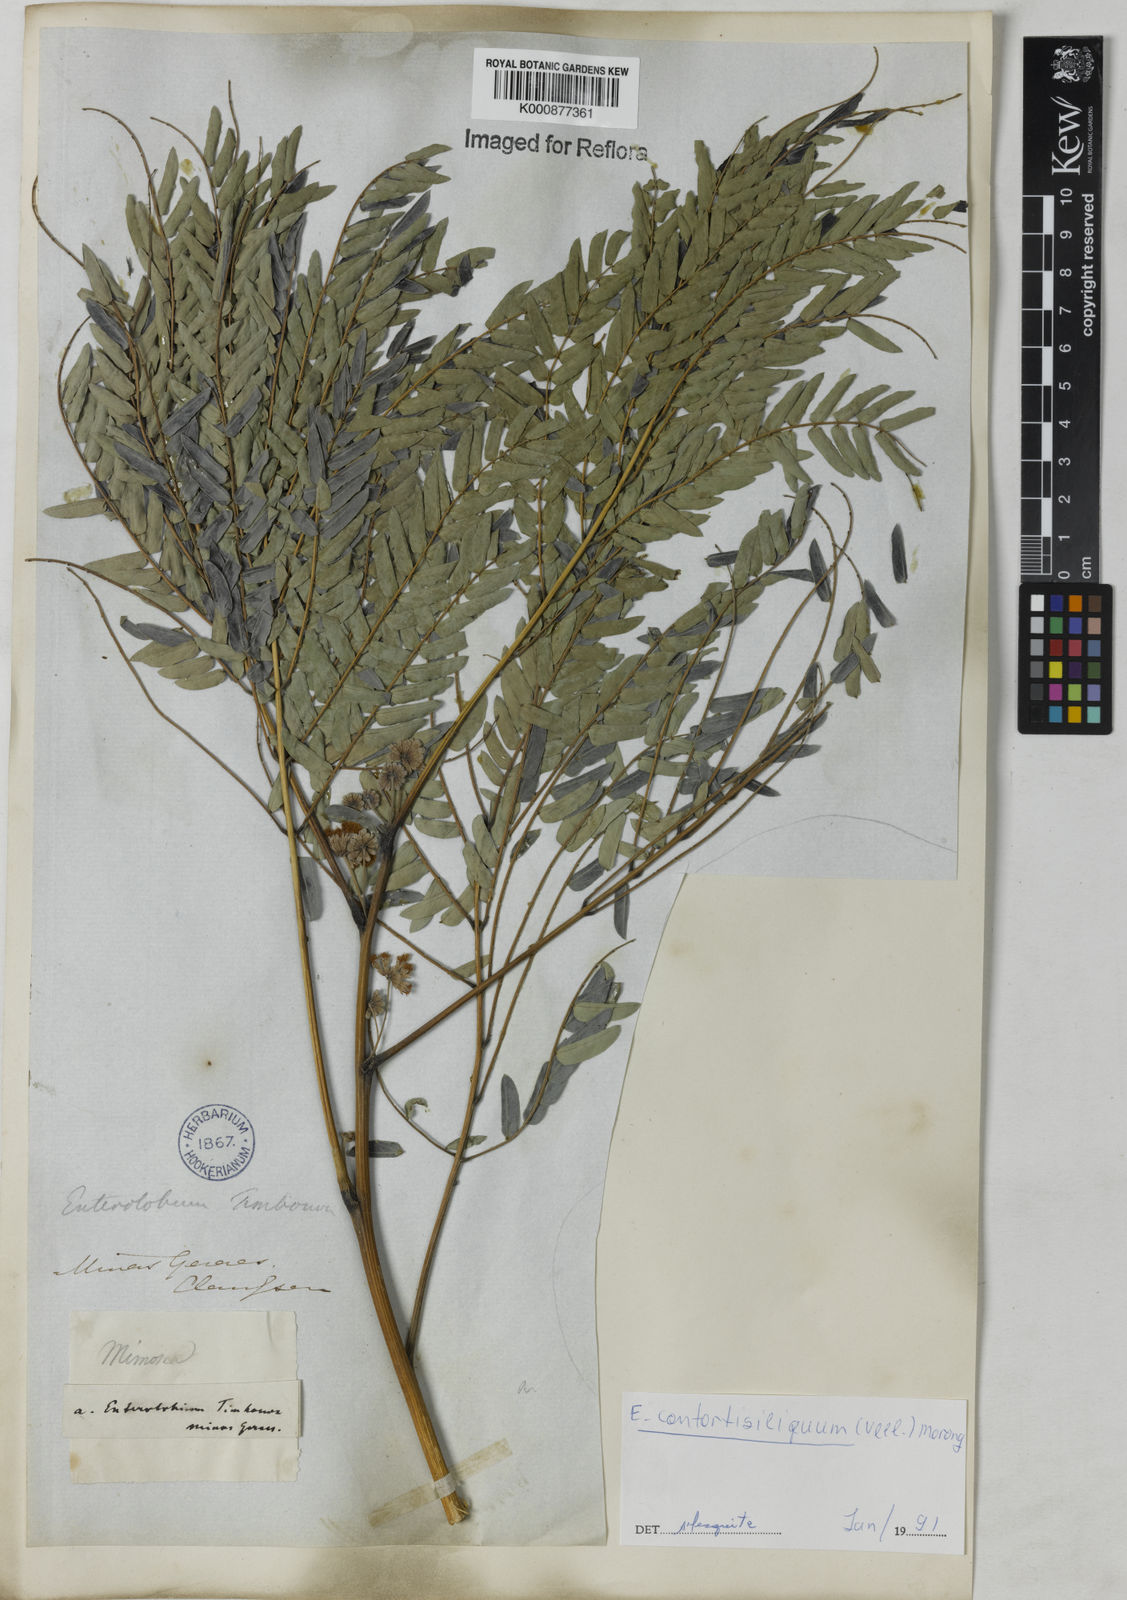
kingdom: Plantae
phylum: Tracheophyta
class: Magnoliopsida
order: Fabales
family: Fabaceae
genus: Enterolobium
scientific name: Enterolobium contortisiliquum
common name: Pacara earpod tree
